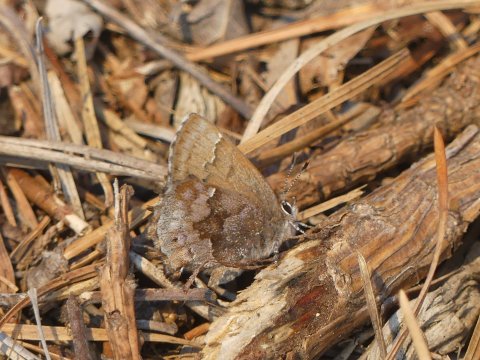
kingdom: Animalia
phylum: Arthropoda
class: Insecta
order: Lepidoptera
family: Lycaenidae
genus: Thecla
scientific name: Thecla irus
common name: Frosted Elfin
